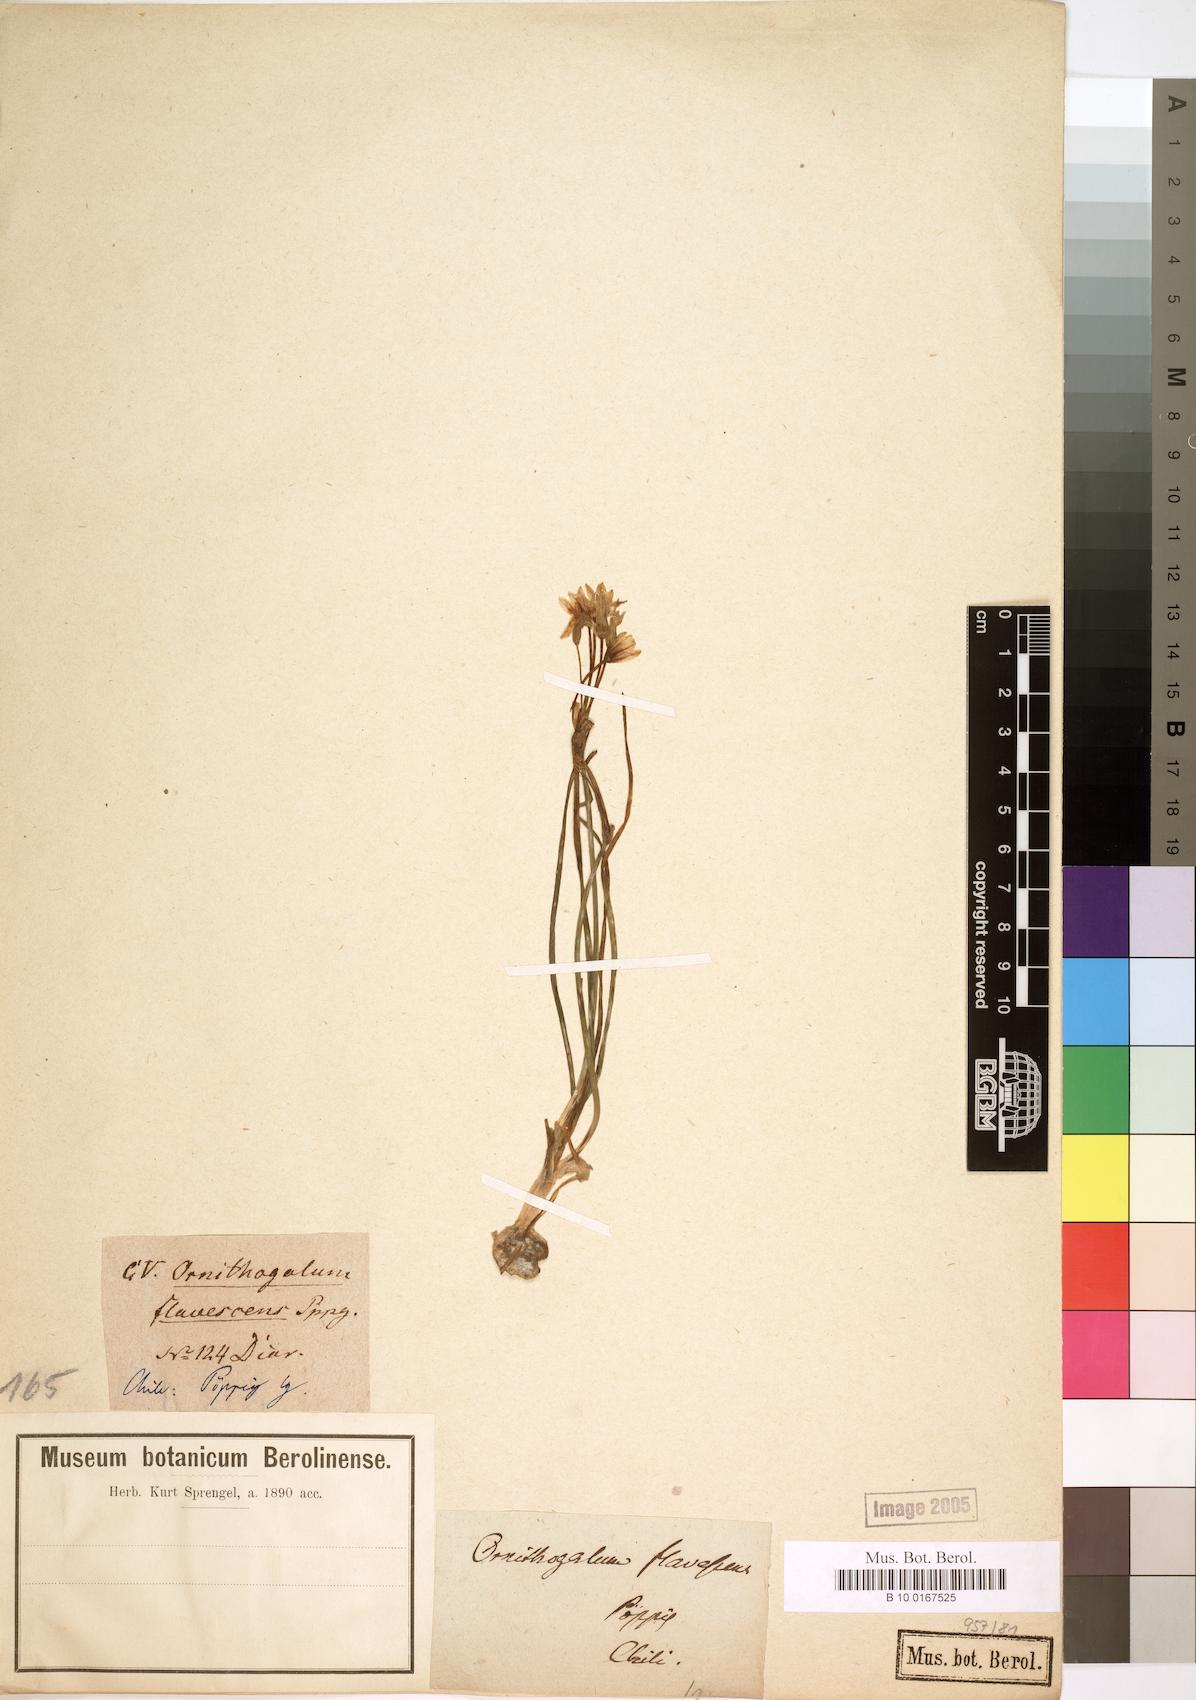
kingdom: Plantae
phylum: Tracheophyta
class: Liliopsida
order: Asparagales
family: Asparagaceae
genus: Ornithogalum
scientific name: Ornithogalum
